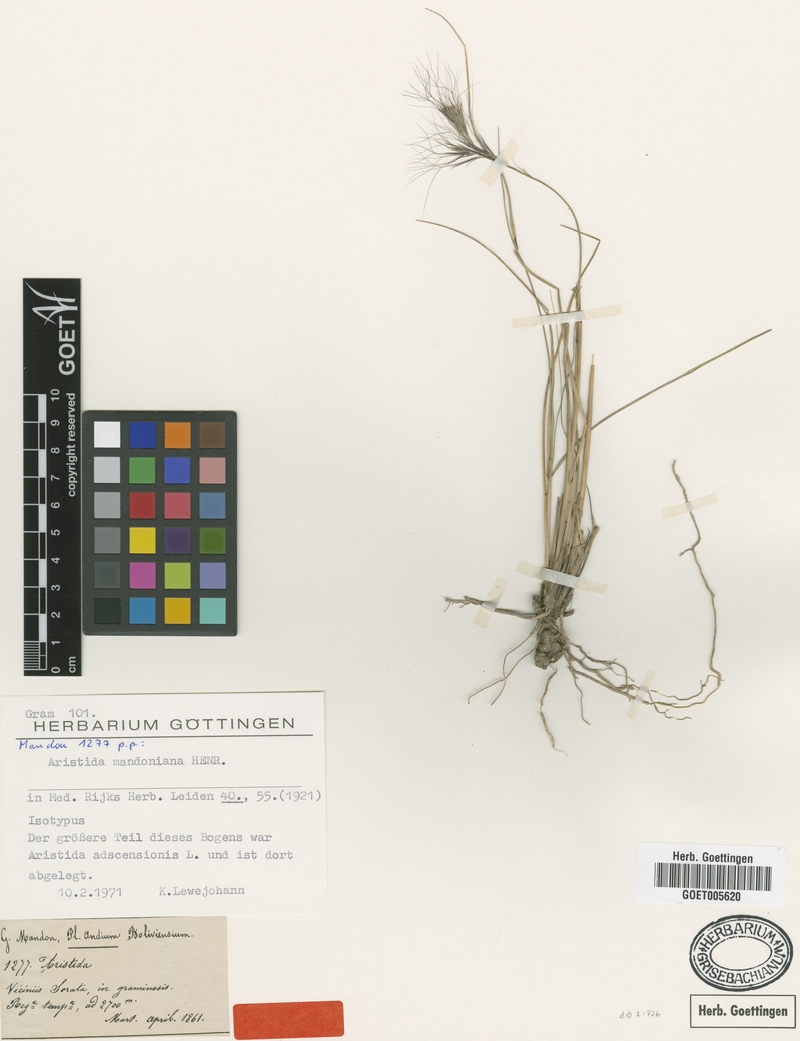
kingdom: Plantae
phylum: Tracheophyta
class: Liliopsida
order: Poales
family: Poaceae
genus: Aristida
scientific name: Aristida mandoniana
